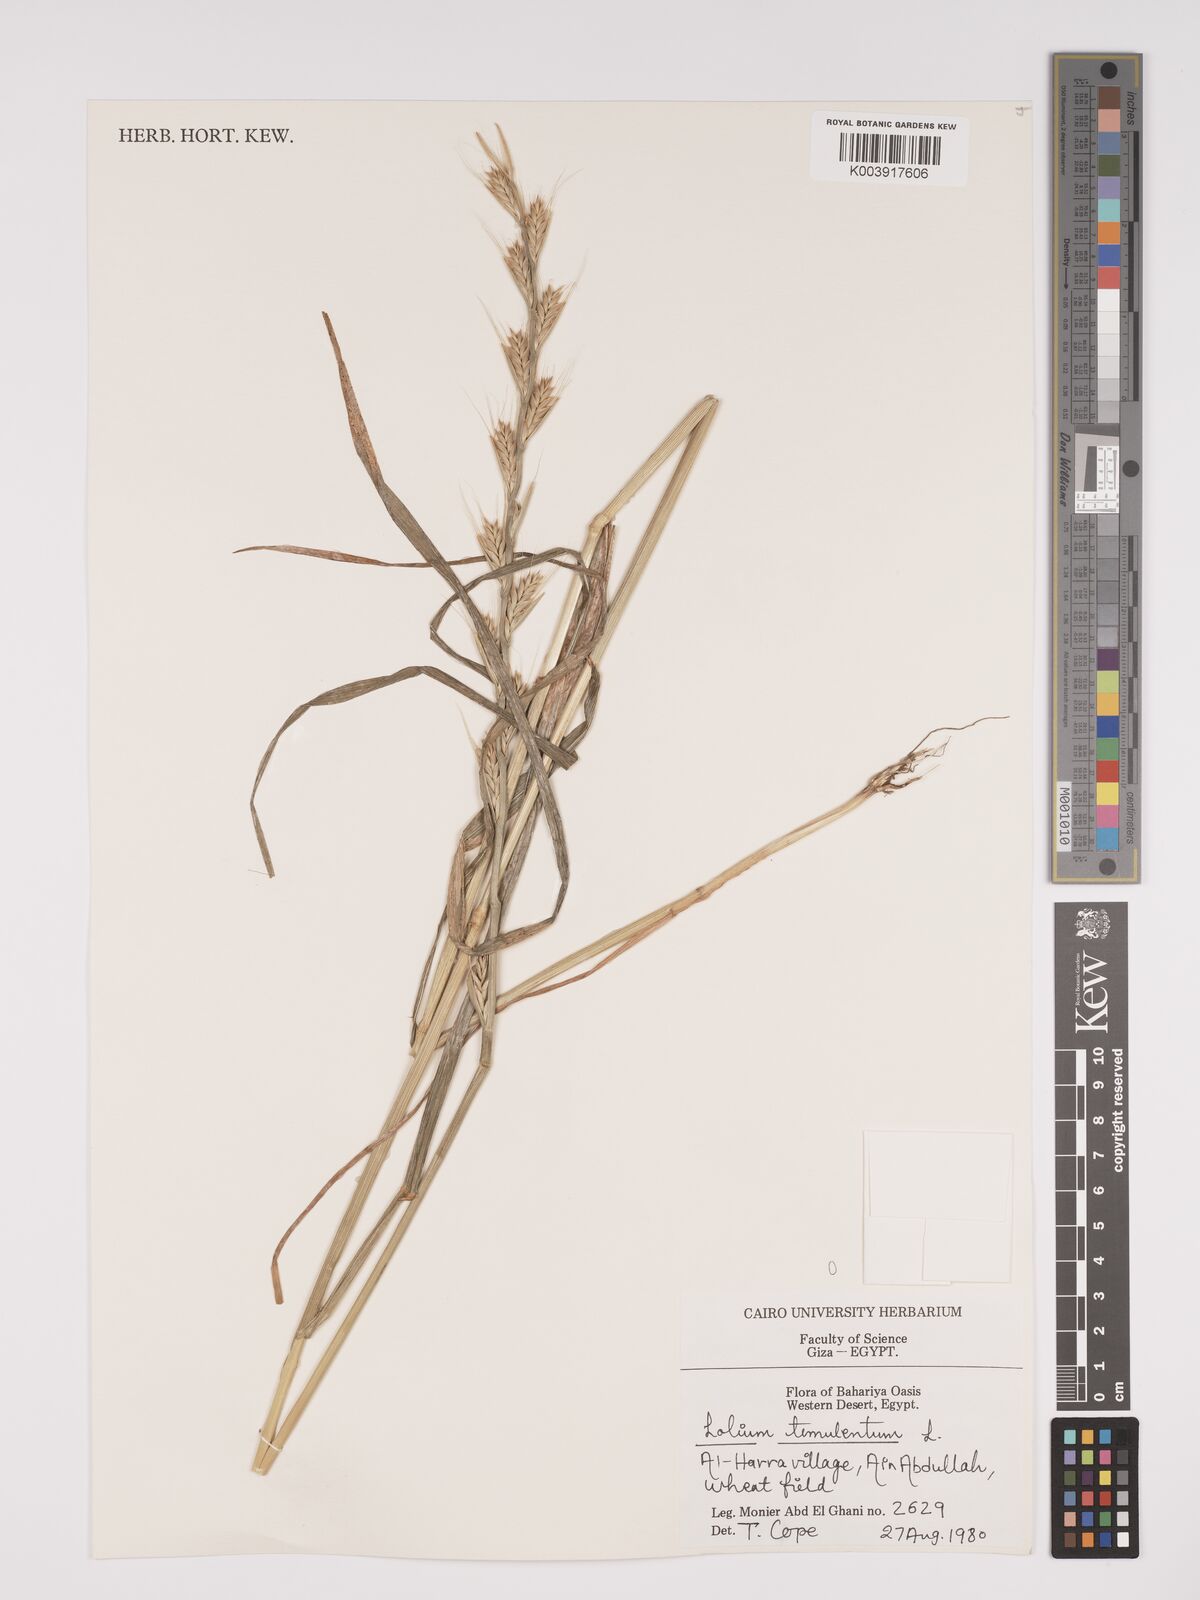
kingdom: Plantae
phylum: Tracheophyta
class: Liliopsida
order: Poales
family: Poaceae
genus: Lolium
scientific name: Lolium temulentum
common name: Darnel
